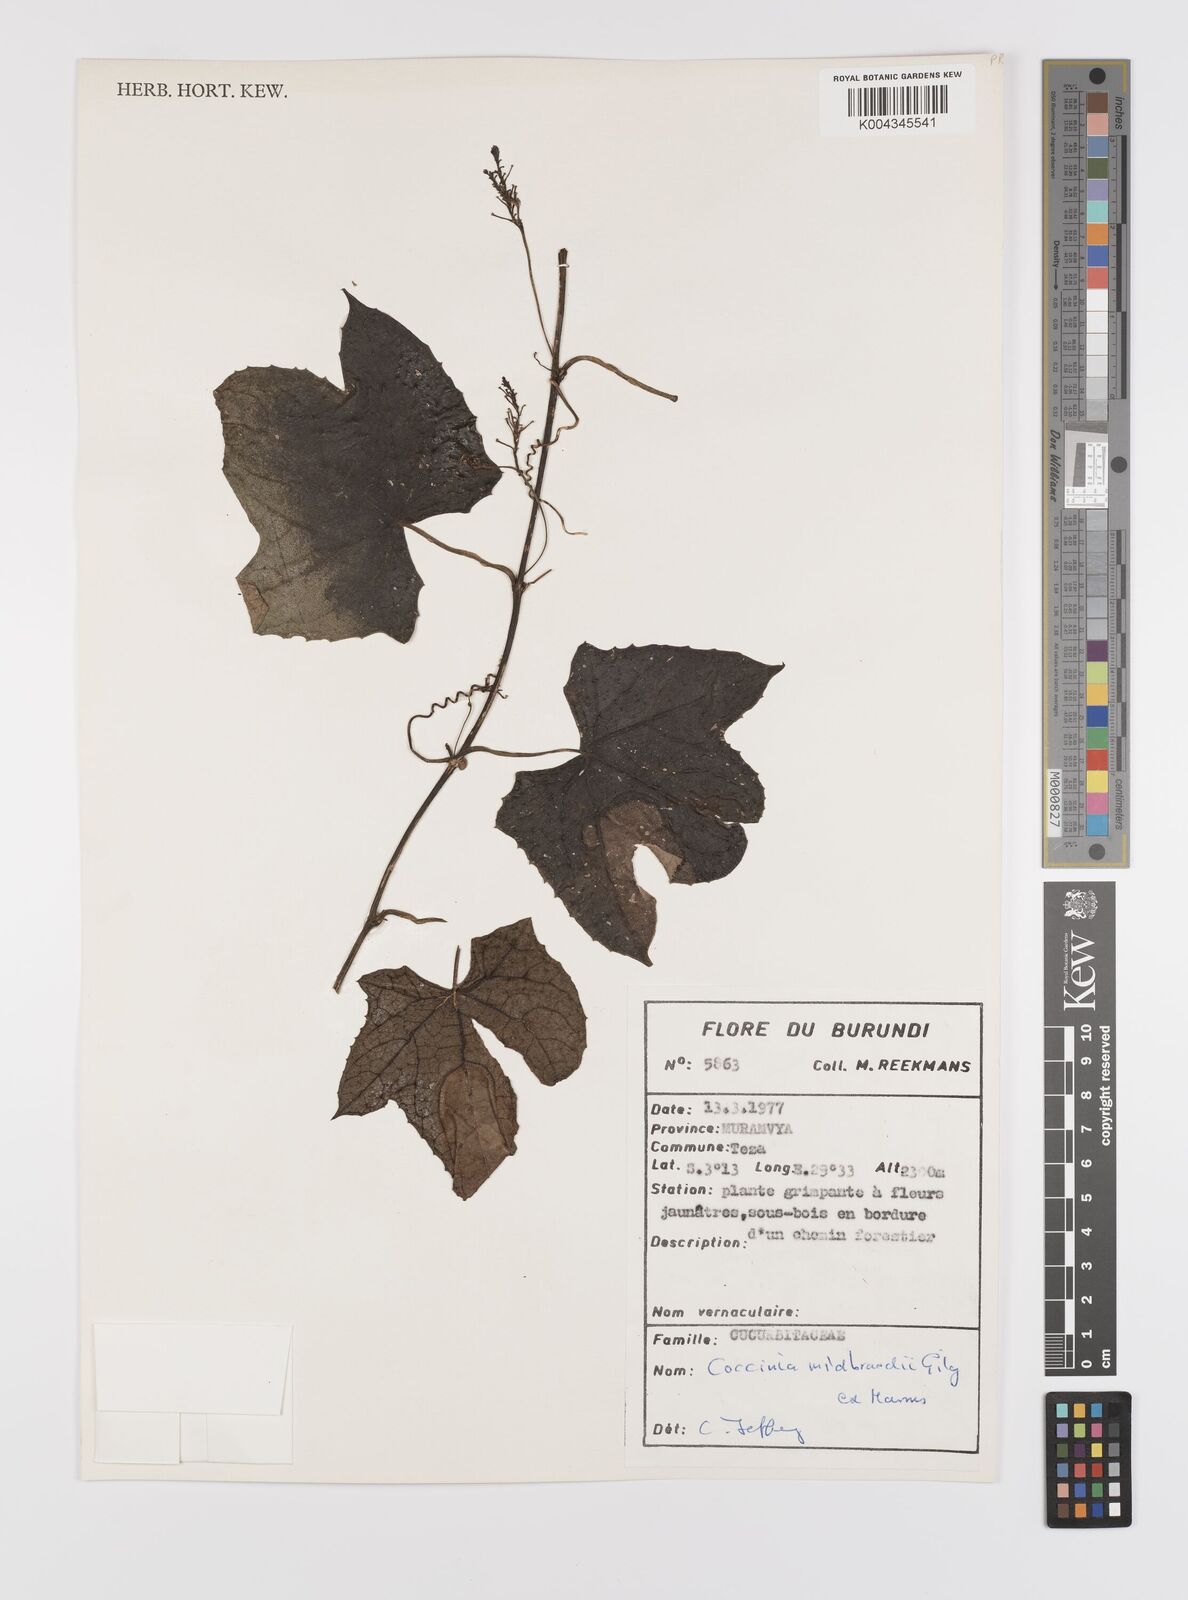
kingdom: Plantae
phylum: Tracheophyta
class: Magnoliopsida
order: Cucurbitales
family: Cucurbitaceae
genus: Coccinia
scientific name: Coccinia mildbraedii
